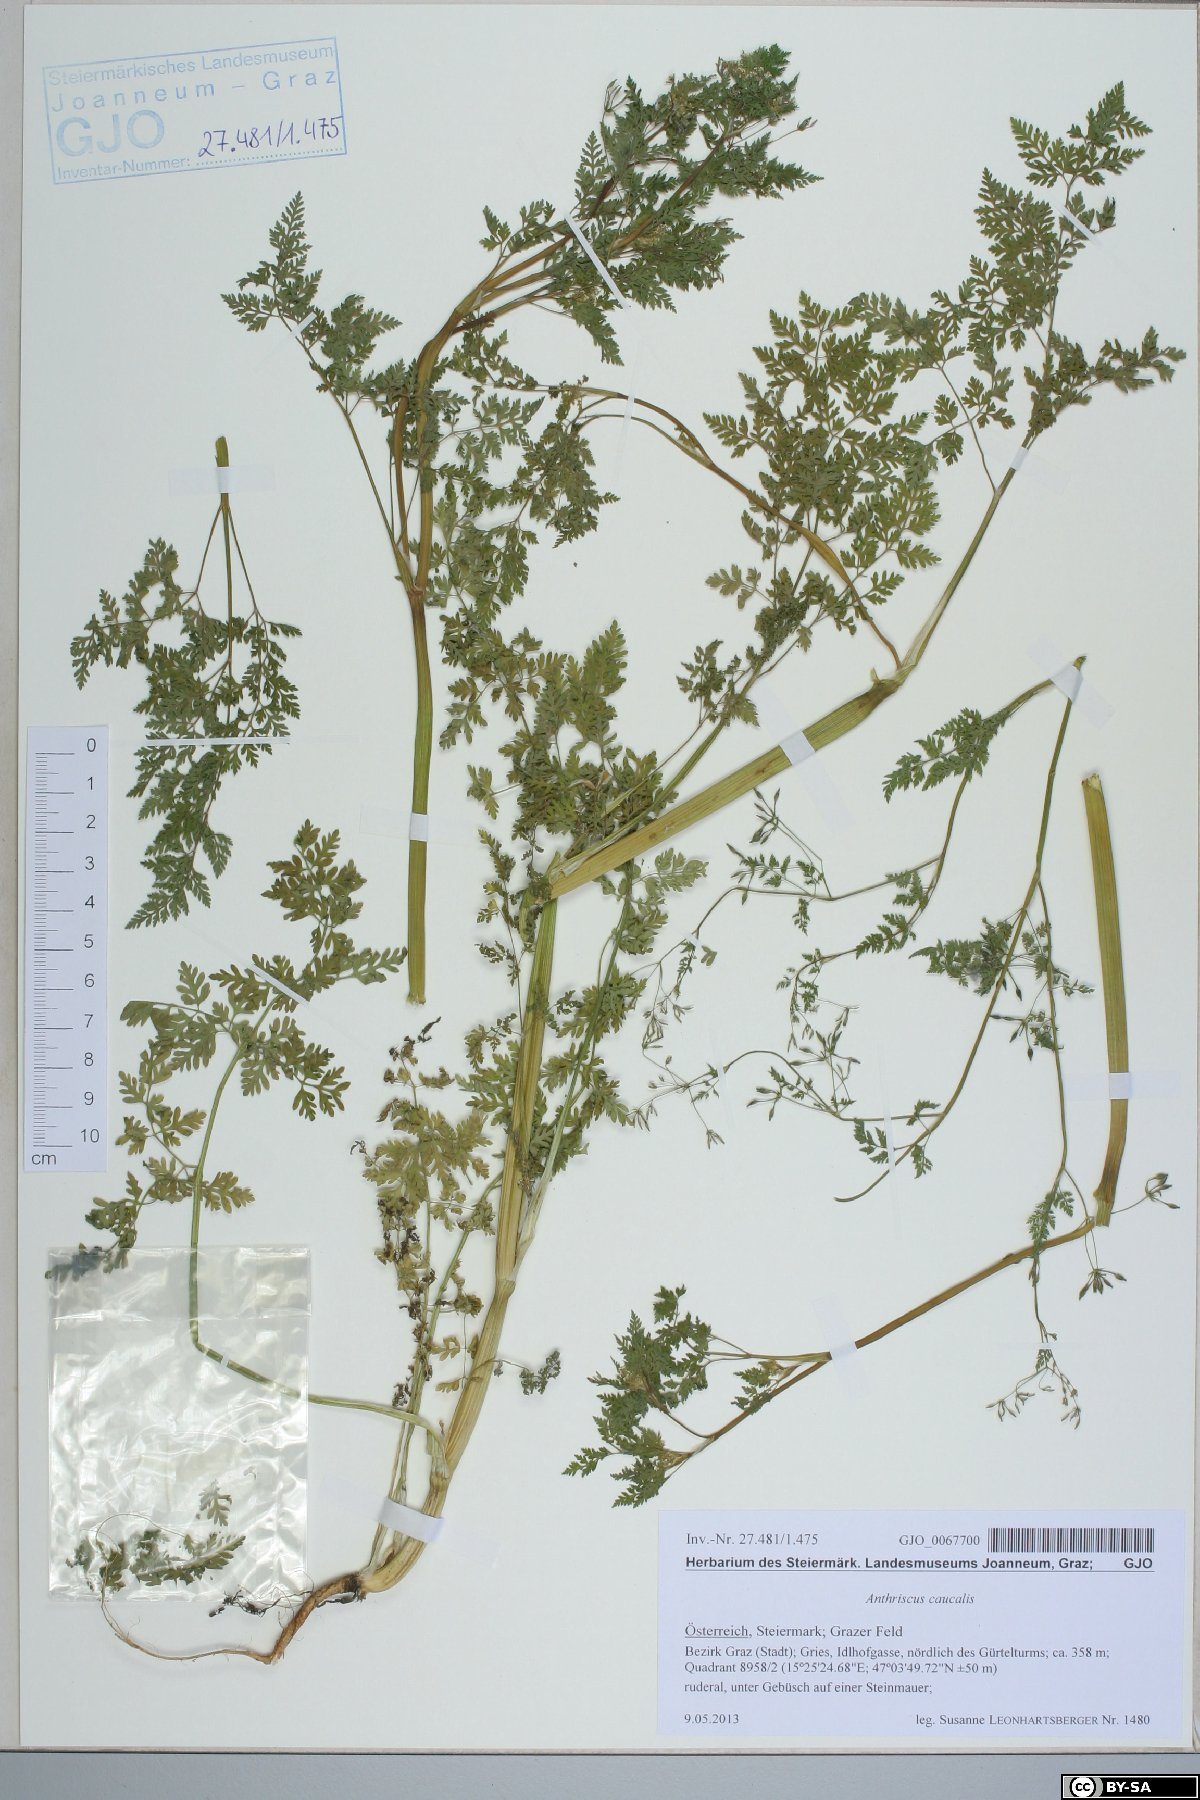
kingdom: Plantae
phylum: Tracheophyta
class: Magnoliopsida
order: Apiales
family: Apiaceae
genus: Anthriscus
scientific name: Anthriscus caucalis
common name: Bur chervil
